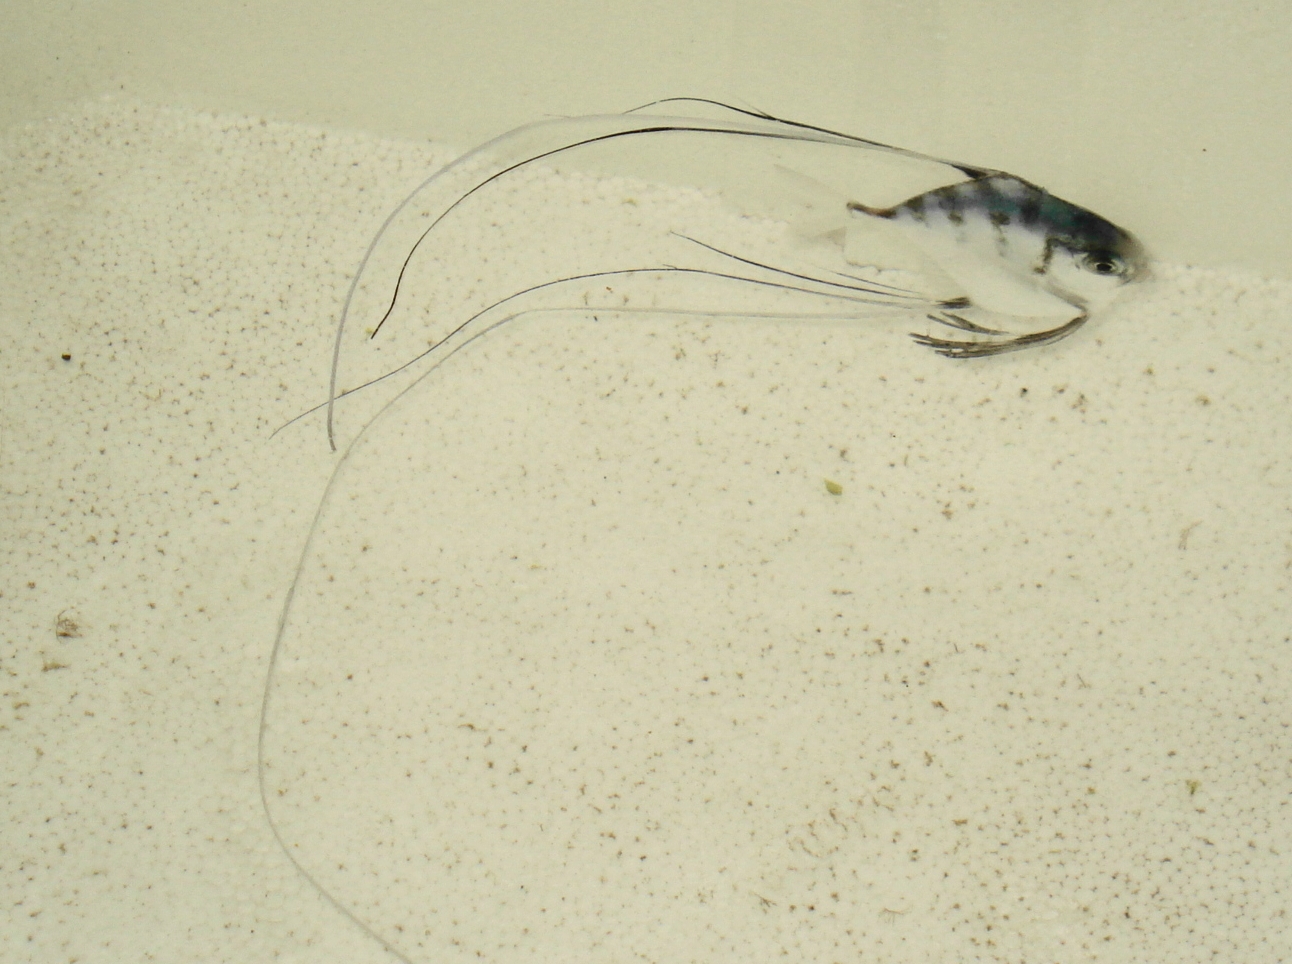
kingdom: Animalia
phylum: Chordata
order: Perciformes
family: Carangidae
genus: Alectis
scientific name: Alectis ciliaris
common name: African pompano
